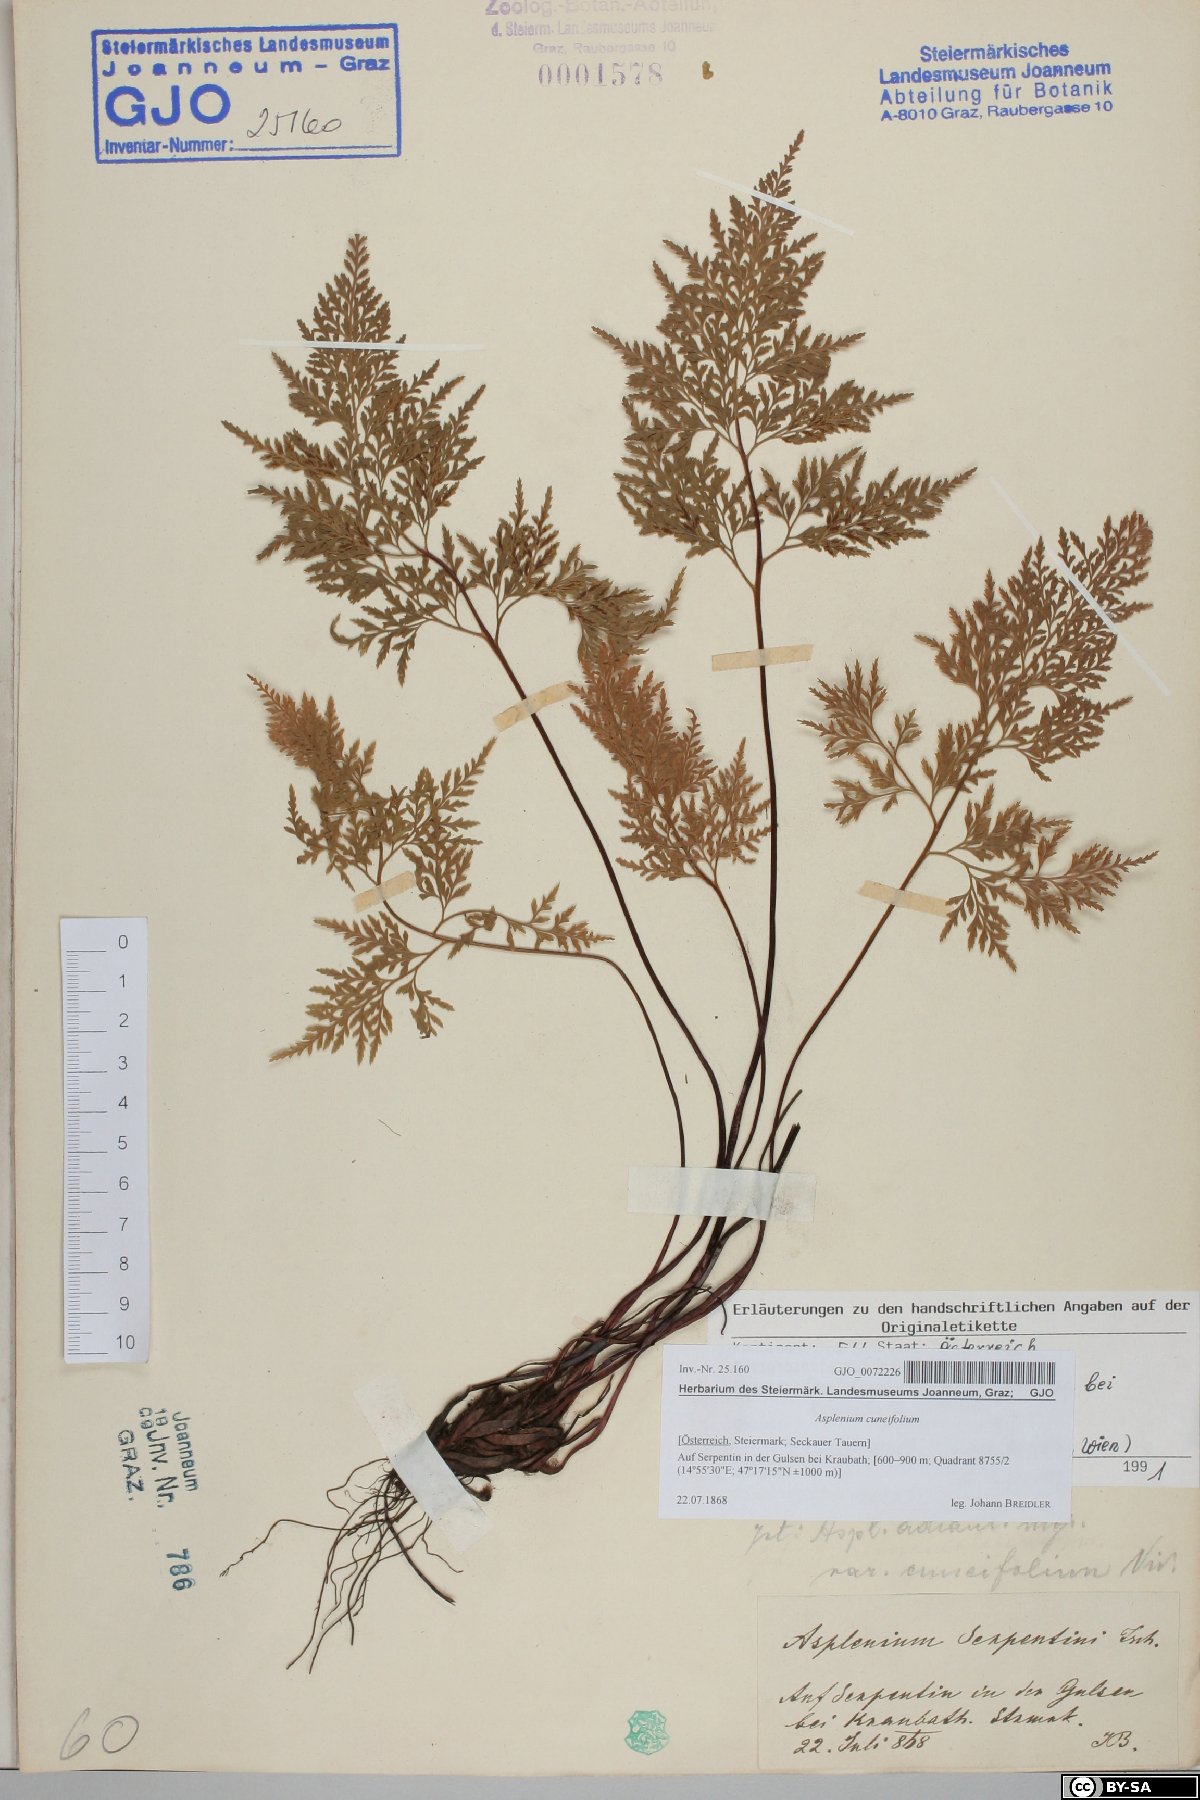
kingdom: Plantae
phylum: Tracheophyta
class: Polypodiopsida
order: Polypodiales
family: Aspleniaceae
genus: Asplenium
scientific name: Asplenium cuneifolium
